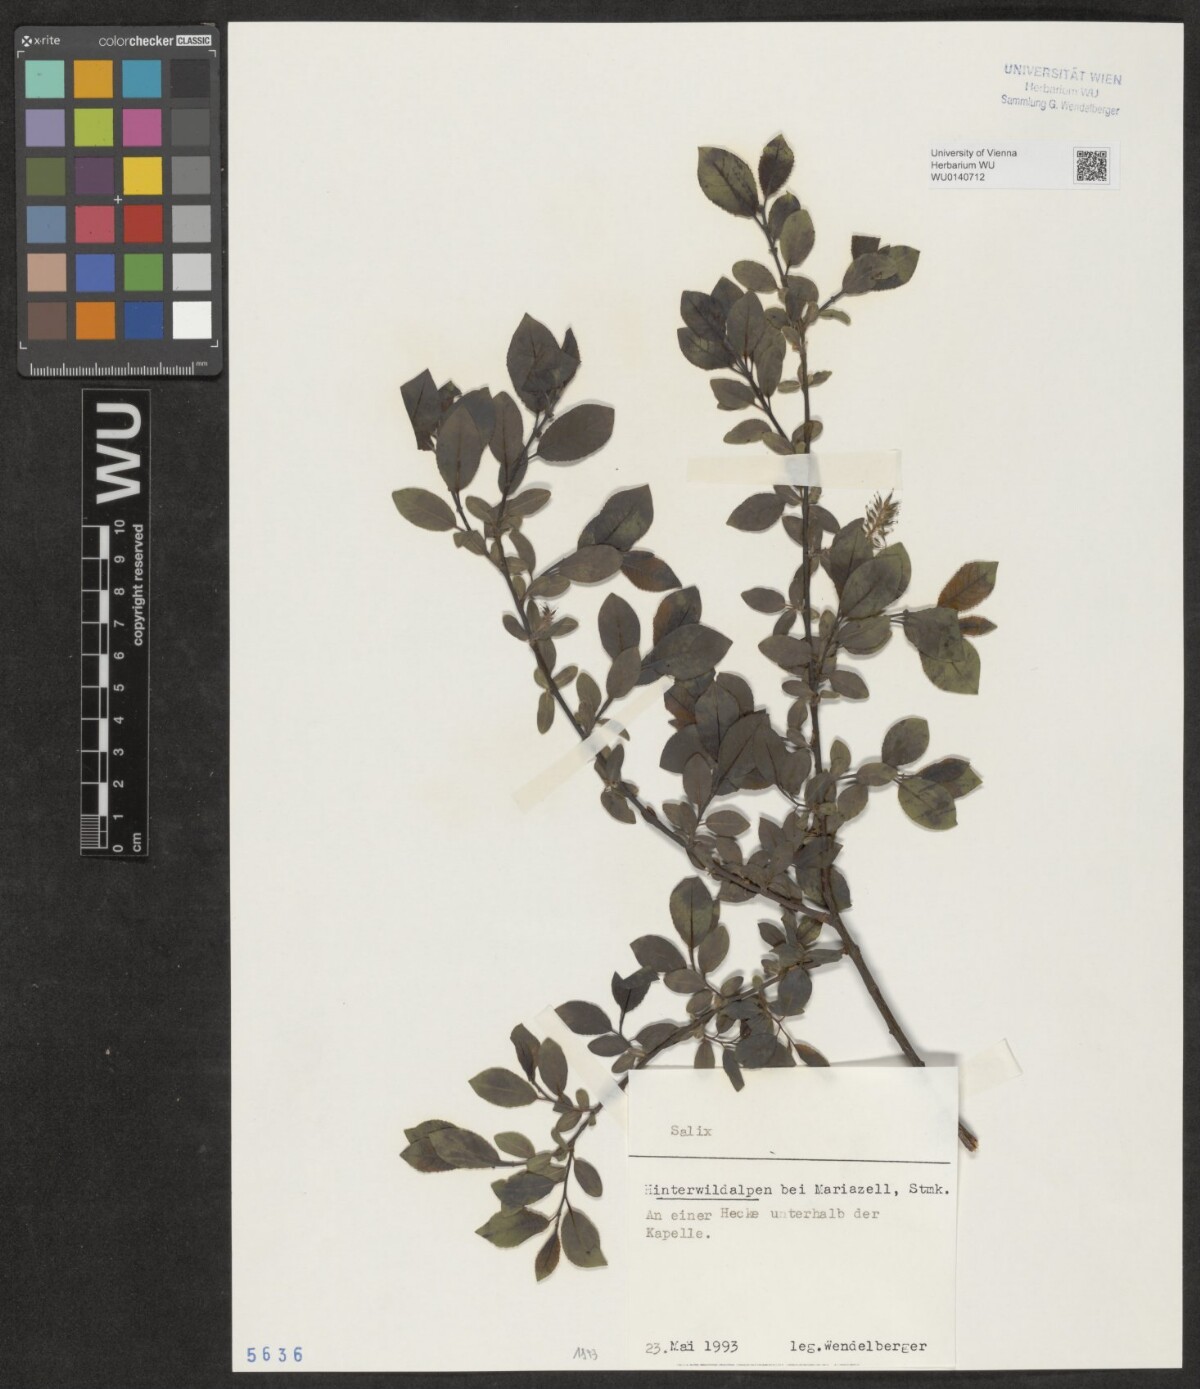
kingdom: Plantae
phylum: Tracheophyta
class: Magnoliopsida
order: Malpighiales
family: Salicaceae
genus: Salix
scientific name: Salix
